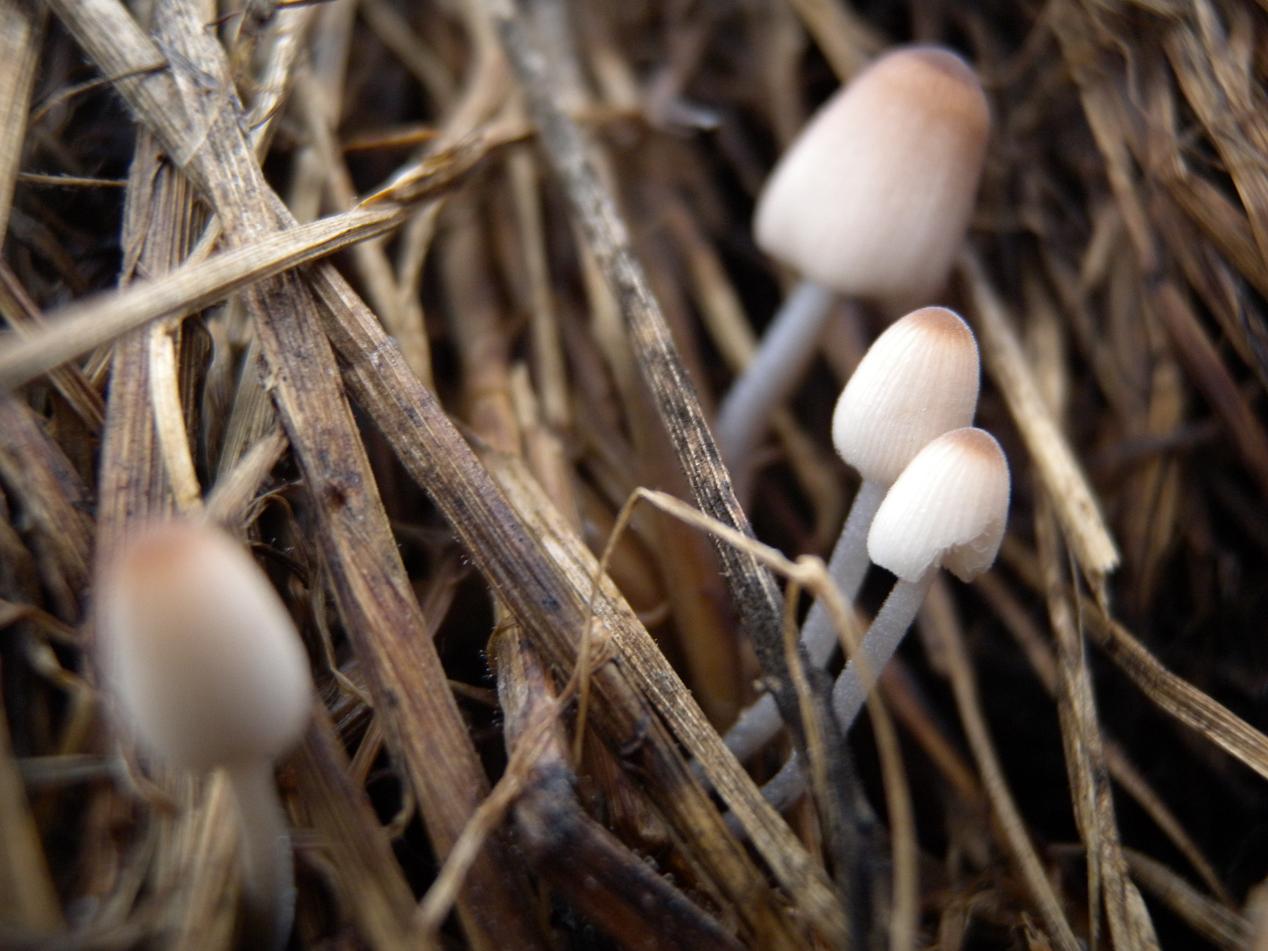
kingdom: Fungi
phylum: Basidiomycota
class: Agaricomycetes
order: Agaricales
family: Psathyrellaceae
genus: Tulosesus
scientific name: Tulosesus marculentus
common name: hexagonsporet blækhat
